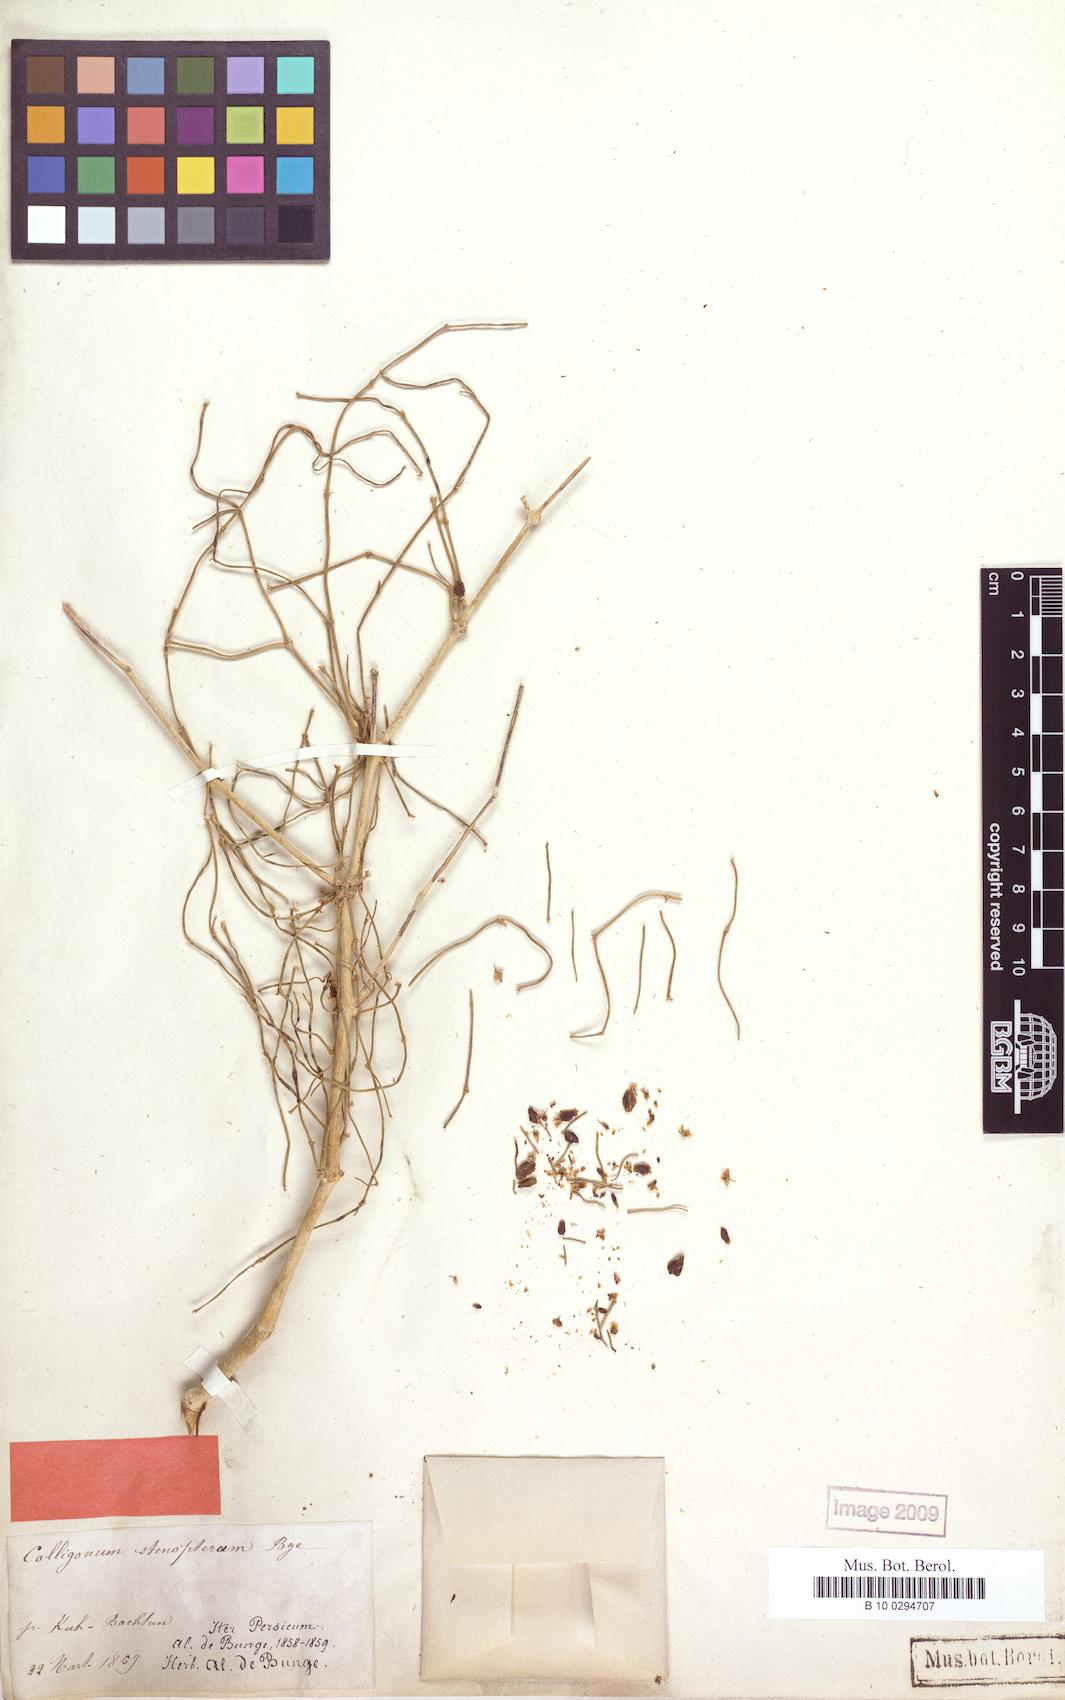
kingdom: Plantae
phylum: Tracheophyta
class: Magnoliopsida
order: Caryophyllales
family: Polygonaceae
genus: Calligonum
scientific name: Calligonum tetrapterum
